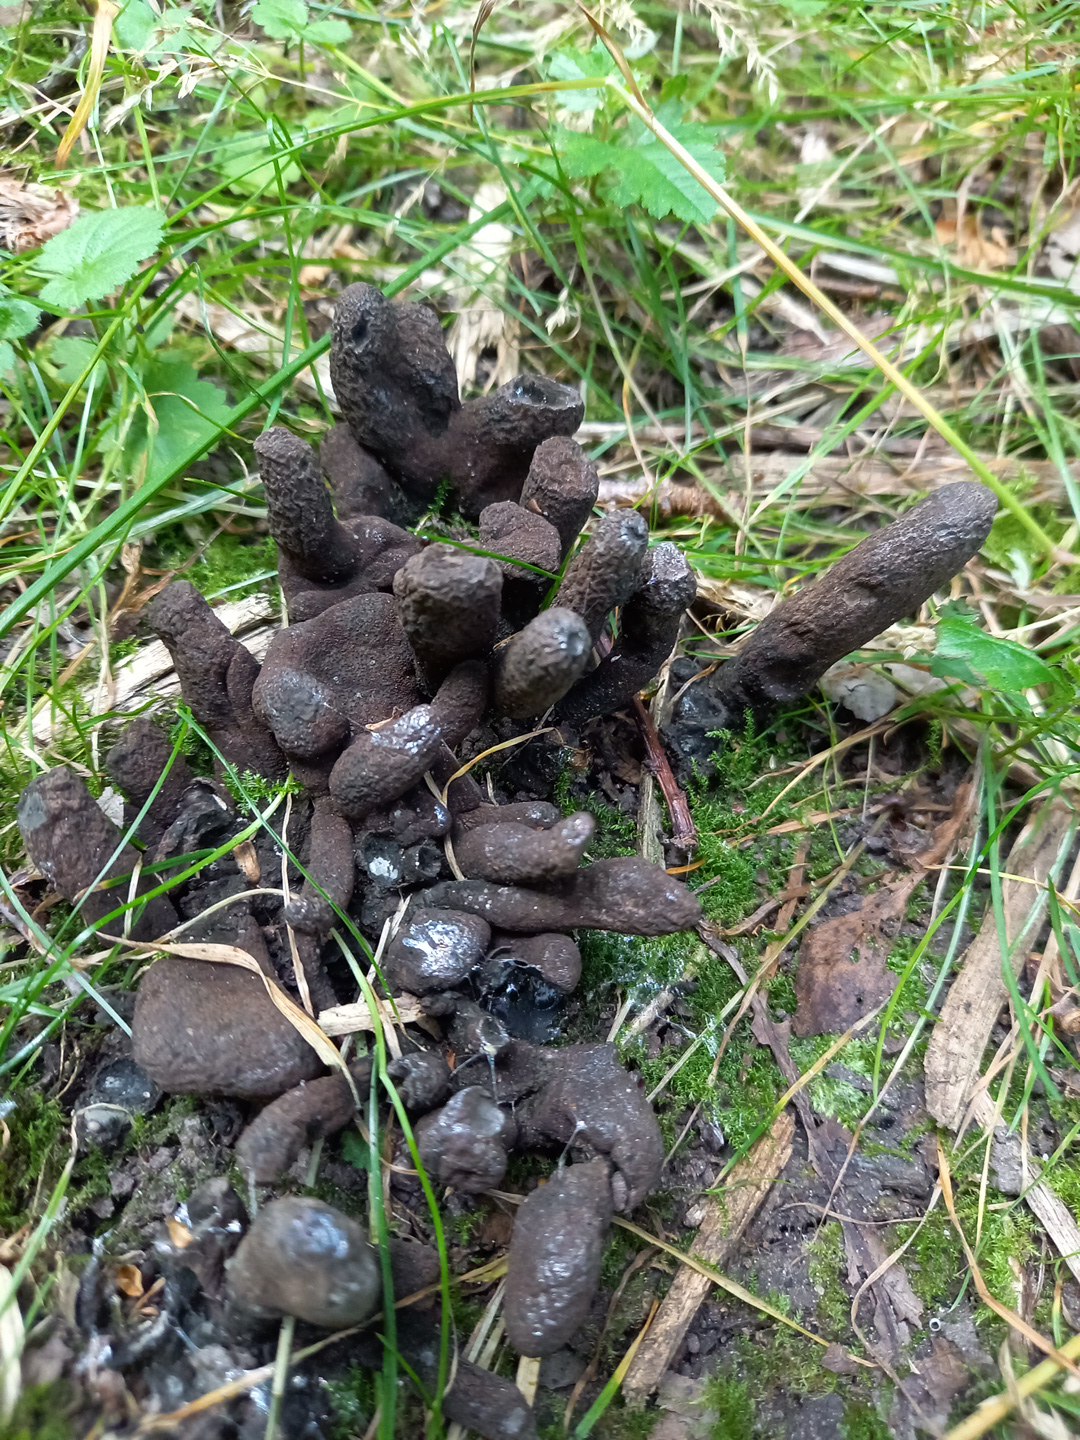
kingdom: Fungi
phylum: Ascomycota
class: Sordariomycetes
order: Xylariales
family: Xylariaceae
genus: Xylaria
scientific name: Xylaria polymorpha
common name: kølle-stødsvamp
